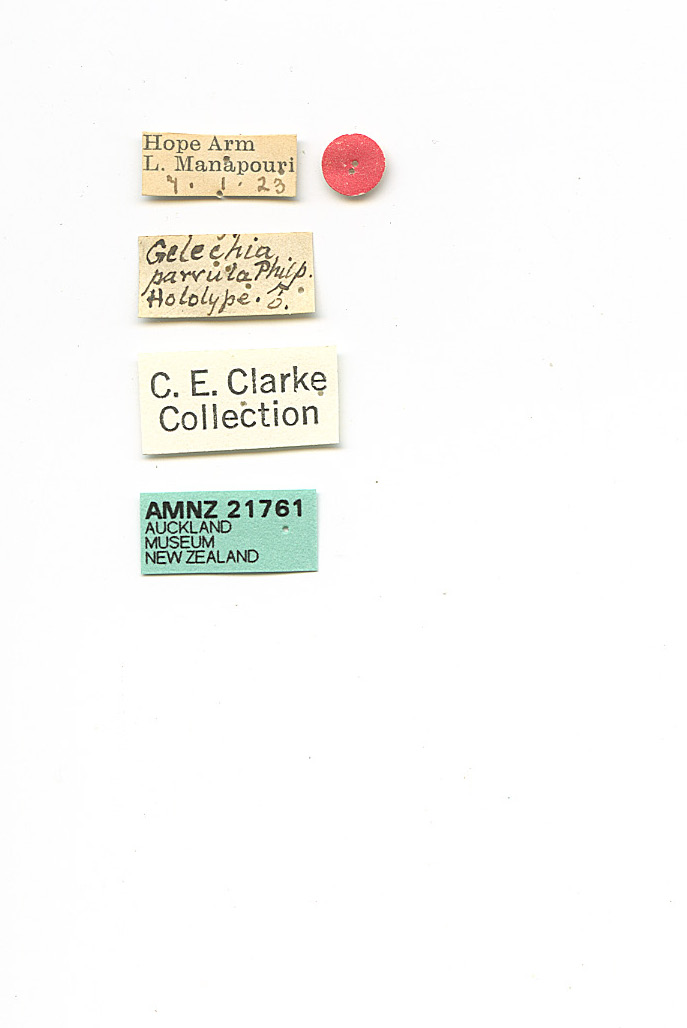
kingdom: Animalia
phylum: Arthropoda
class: Insecta
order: Lepidoptera
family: Gelechiidae
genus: Kiwaia
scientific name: Kiwaia parvula
